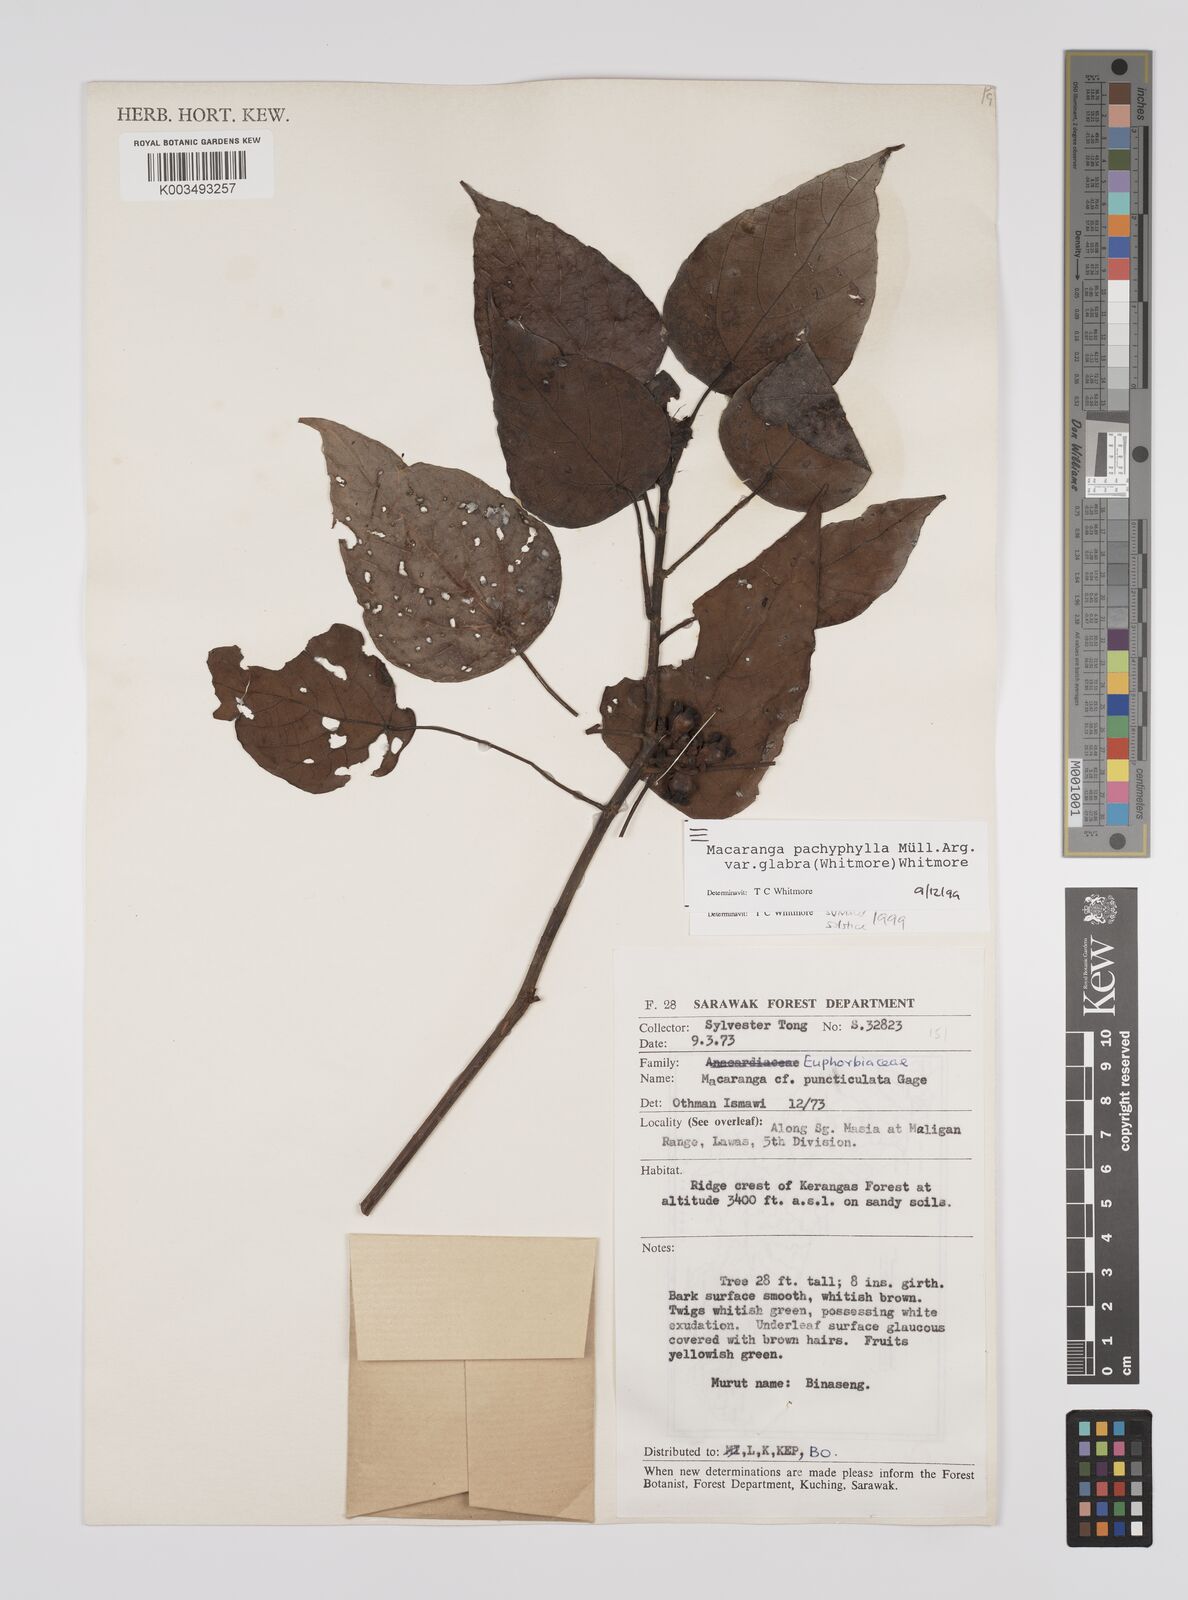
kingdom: Plantae
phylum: Tracheophyta
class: Magnoliopsida
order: Malpighiales
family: Euphorbiaceae
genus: Macaranga
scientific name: Macaranga pachyphylla
